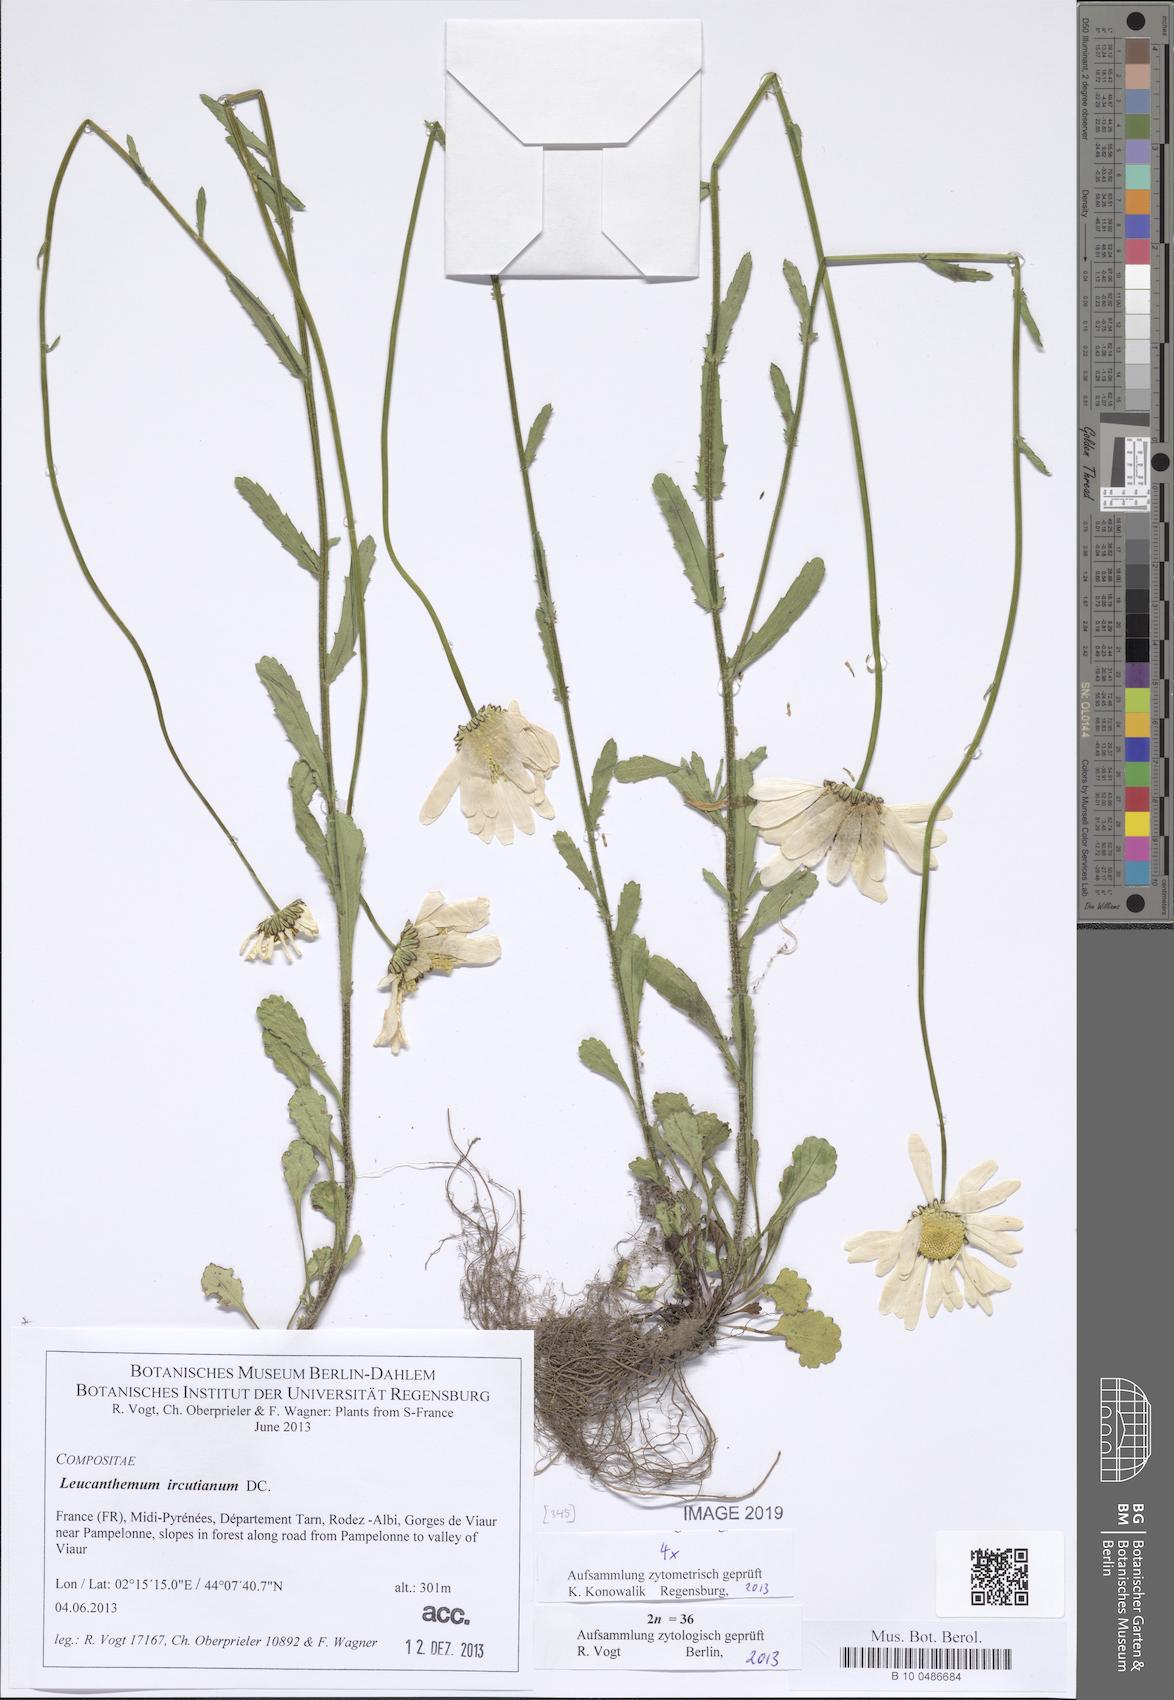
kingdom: Plantae
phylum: Tracheophyta
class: Magnoliopsida
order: Asterales
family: Asteraceae
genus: Leucanthemum
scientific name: Leucanthemum ircutianum
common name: Daisy
